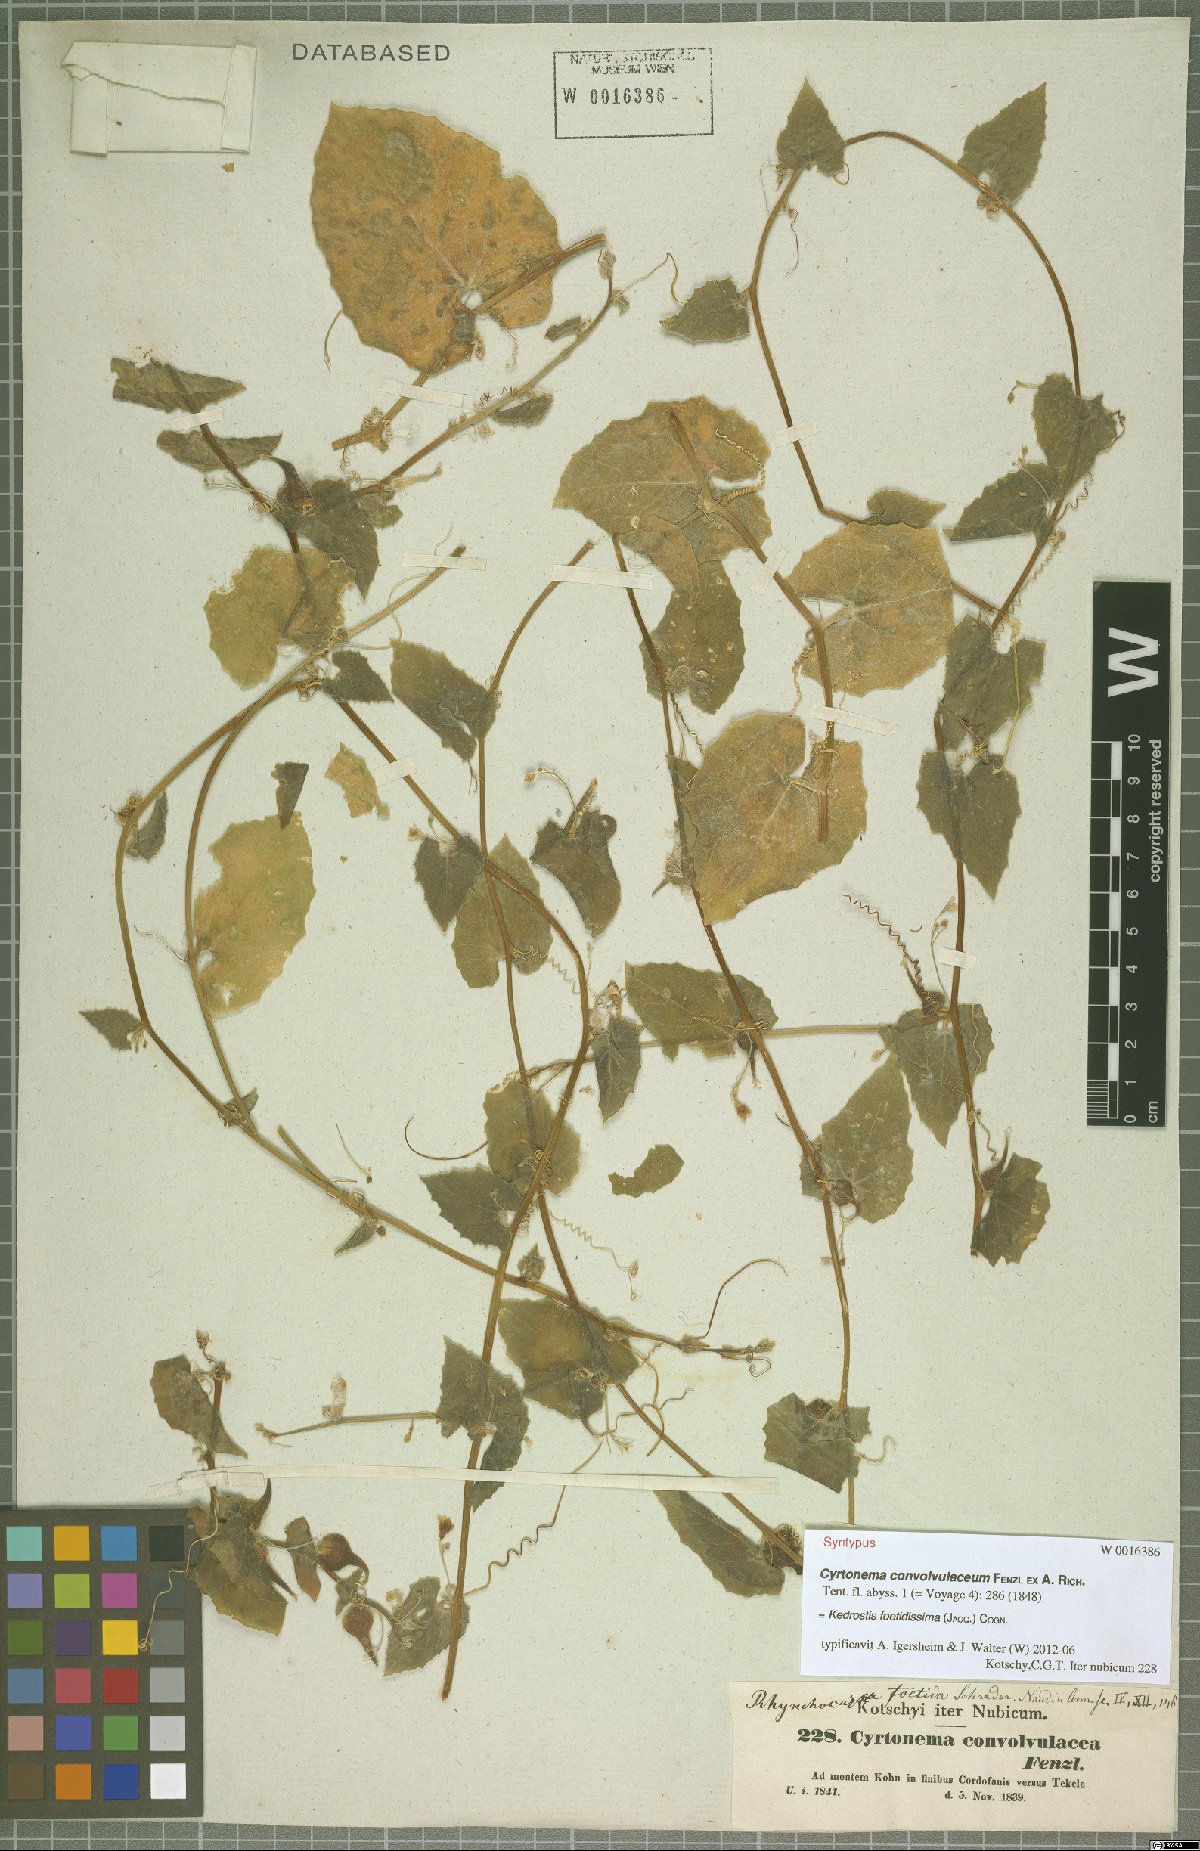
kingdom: Plantae
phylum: Tracheophyta
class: Magnoliopsida
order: Cucurbitales
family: Cucurbitaceae
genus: Kedrostis
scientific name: Kedrostis foetidissima
